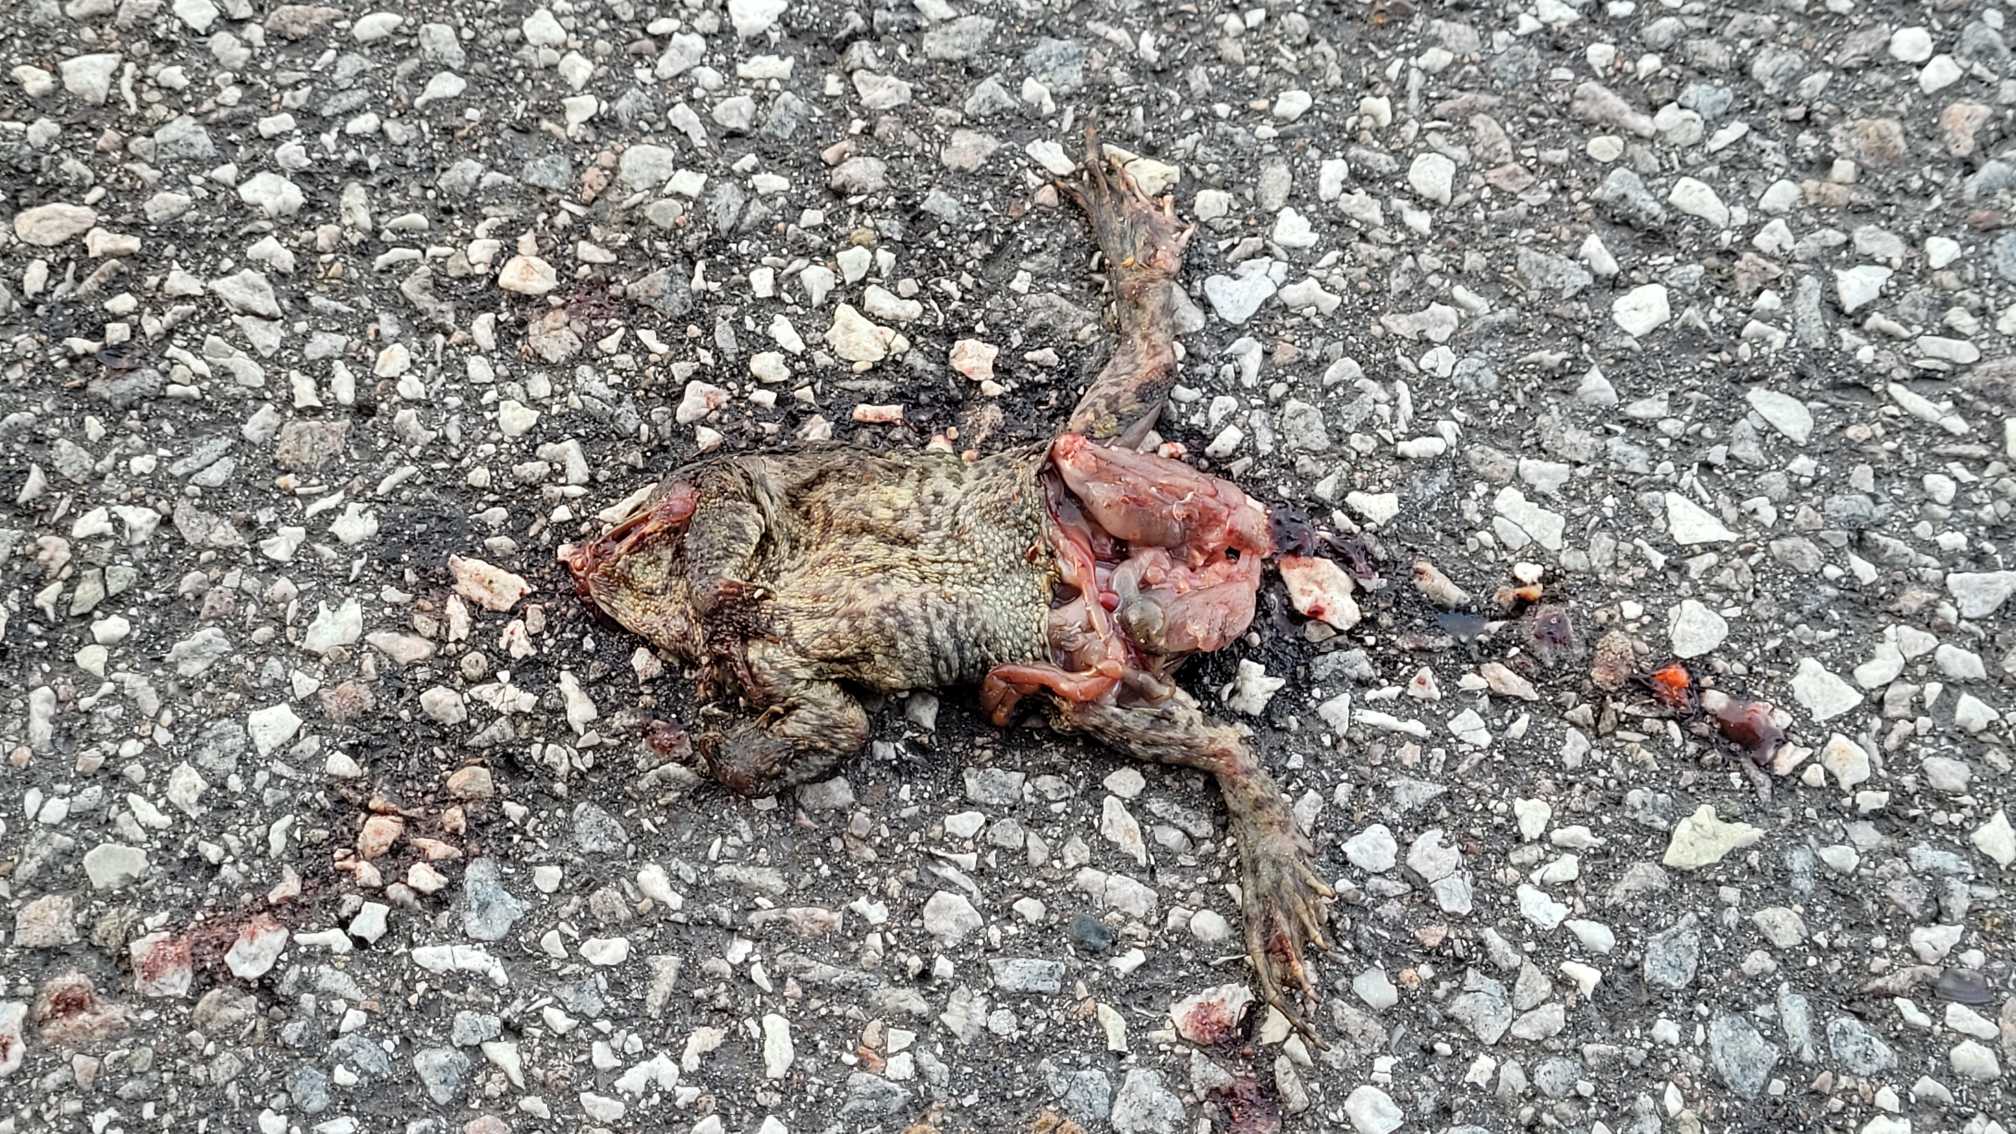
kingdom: Animalia
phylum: Chordata
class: Amphibia
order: Anura
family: Bufonidae
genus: Bufo
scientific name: Bufo bufo
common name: Skrubtudse
